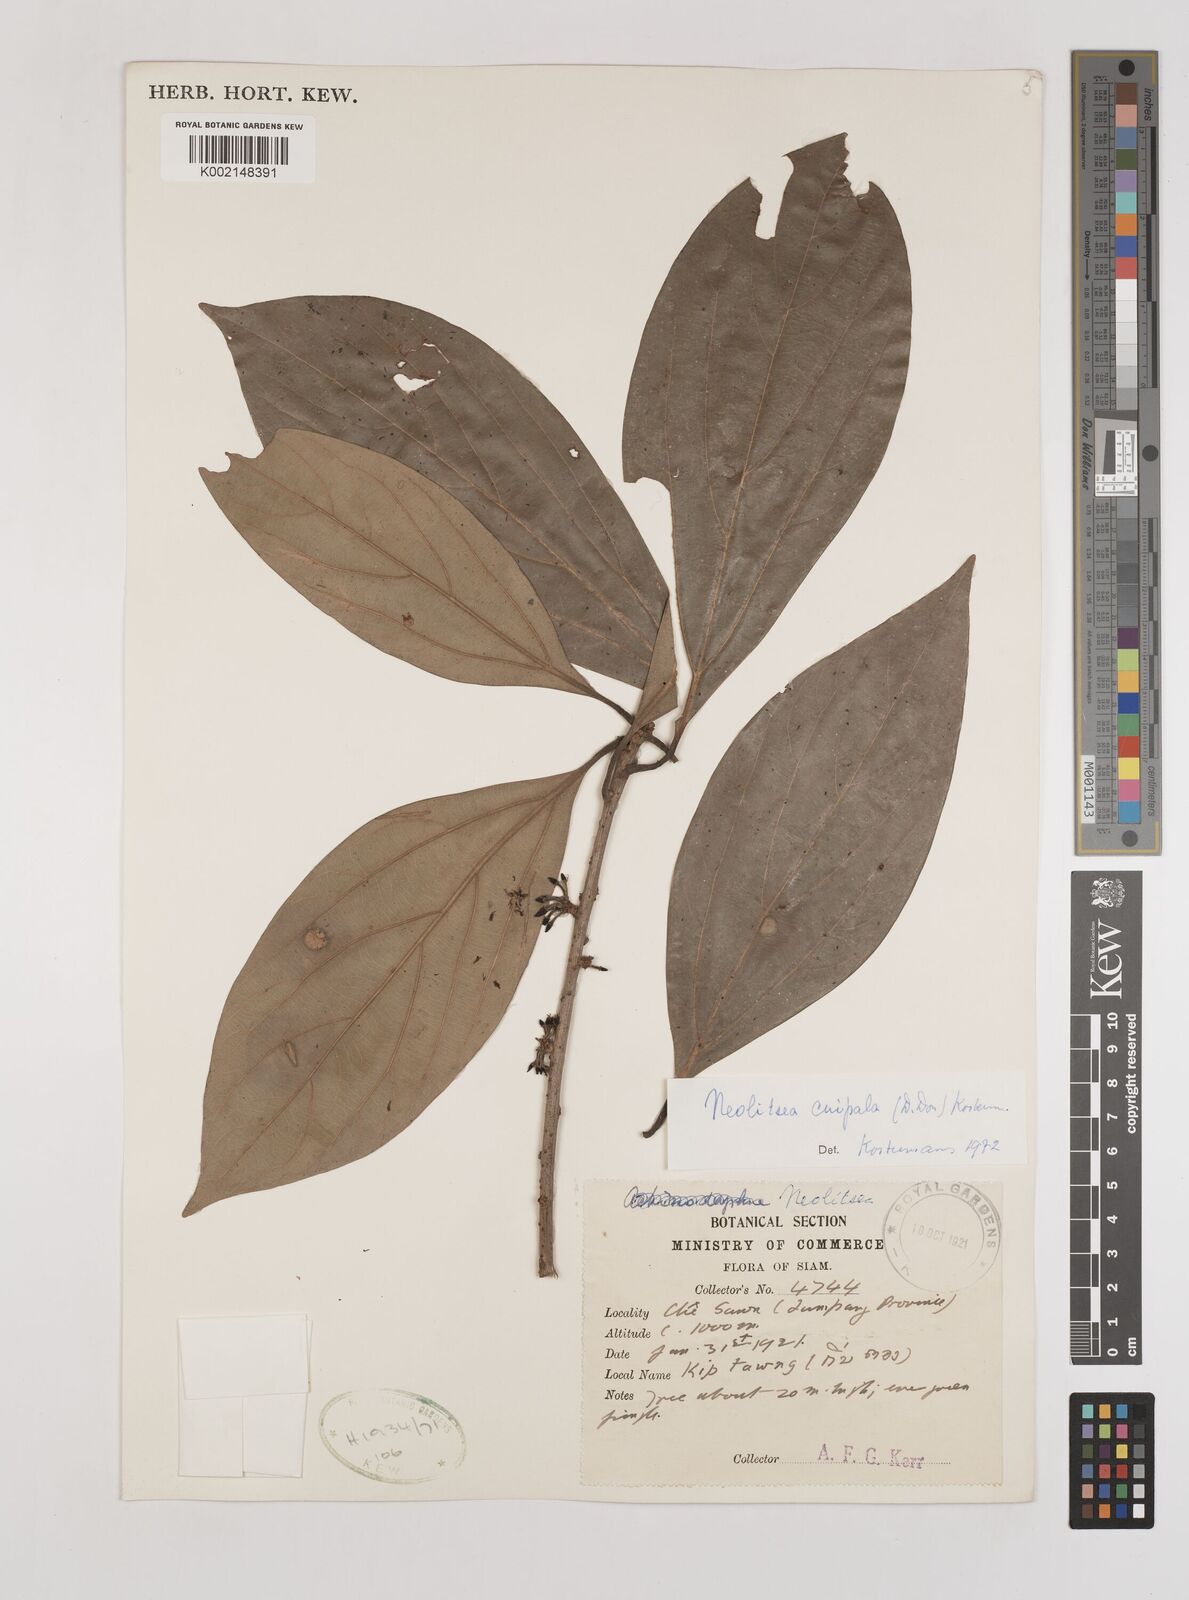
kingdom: Plantae
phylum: Tracheophyta
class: Magnoliopsida
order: Laurales
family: Lauraceae
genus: Neolitsea
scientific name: Neolitsea cuipala
